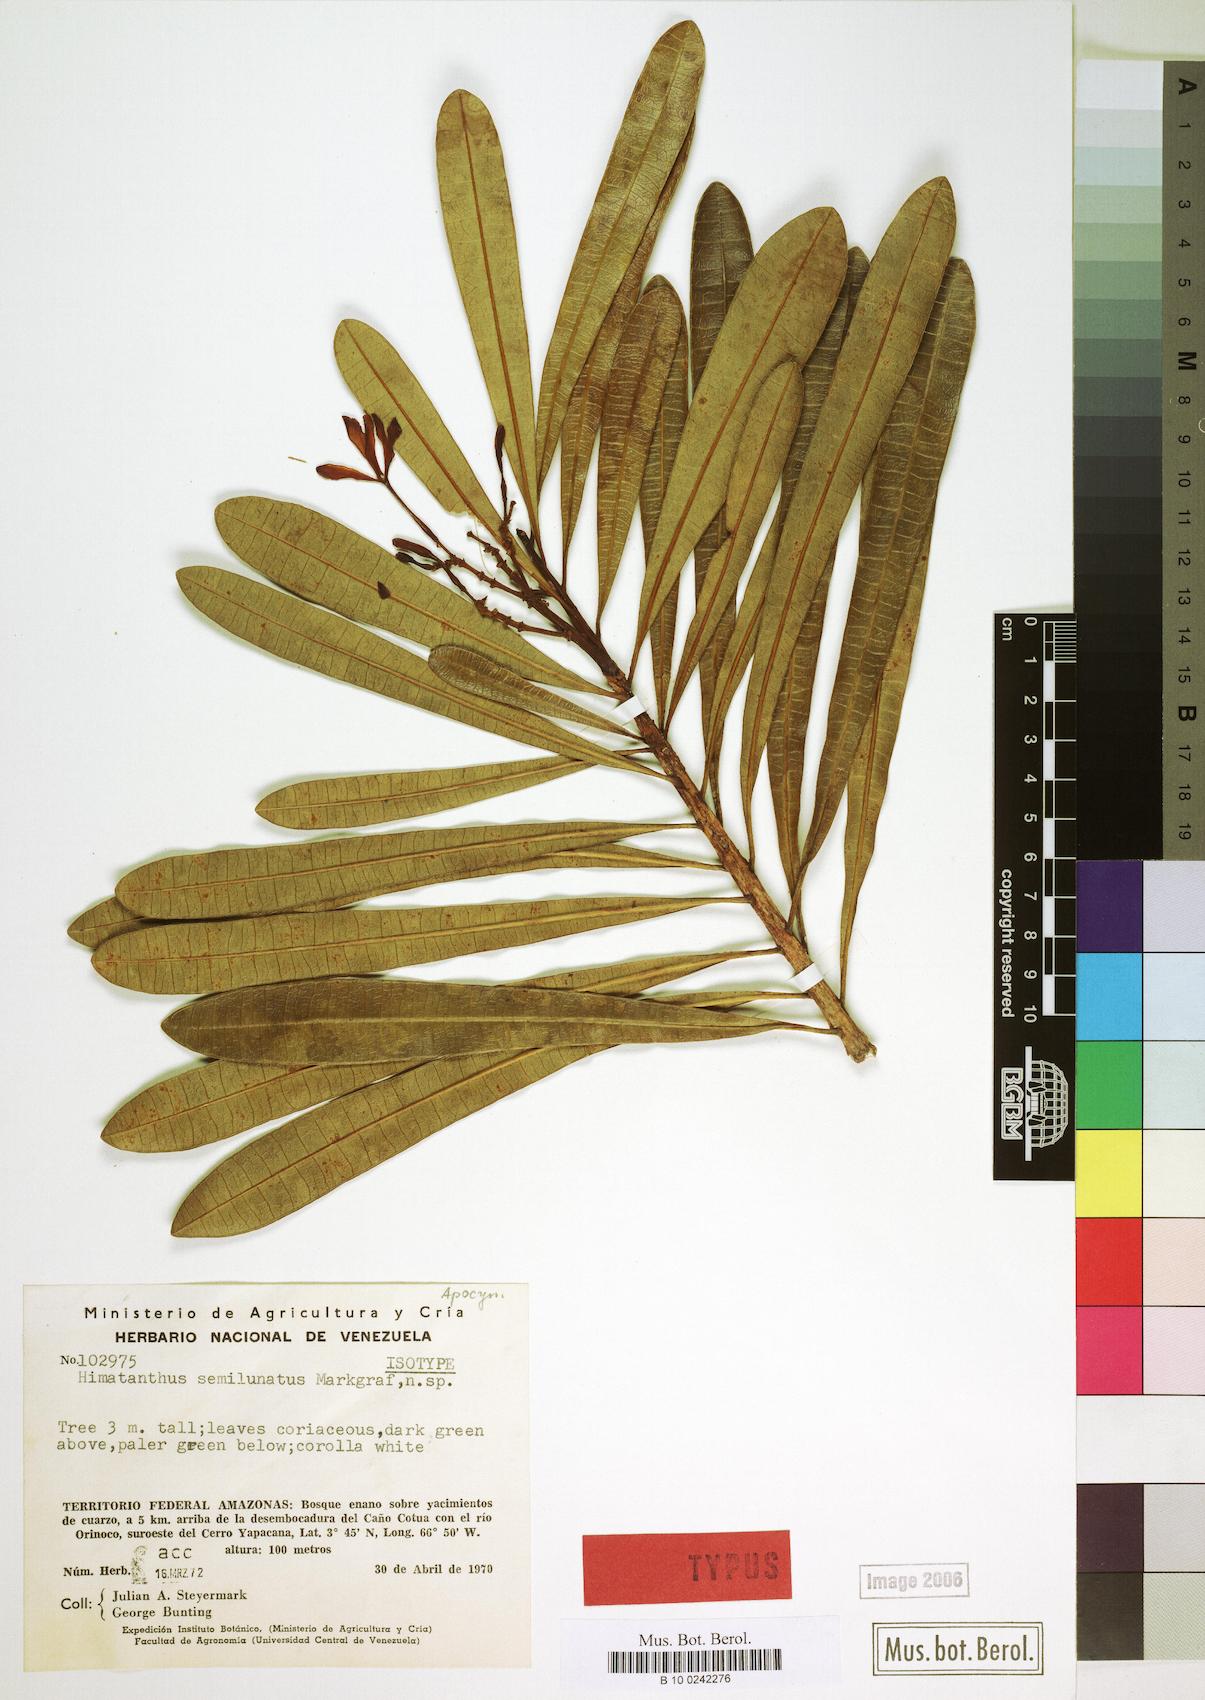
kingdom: Plantae
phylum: Tracheophyta
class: Magnoliopsida
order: Gentianales
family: Apocynaceae
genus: Himatanthus
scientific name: Himatanthus semilunatus
